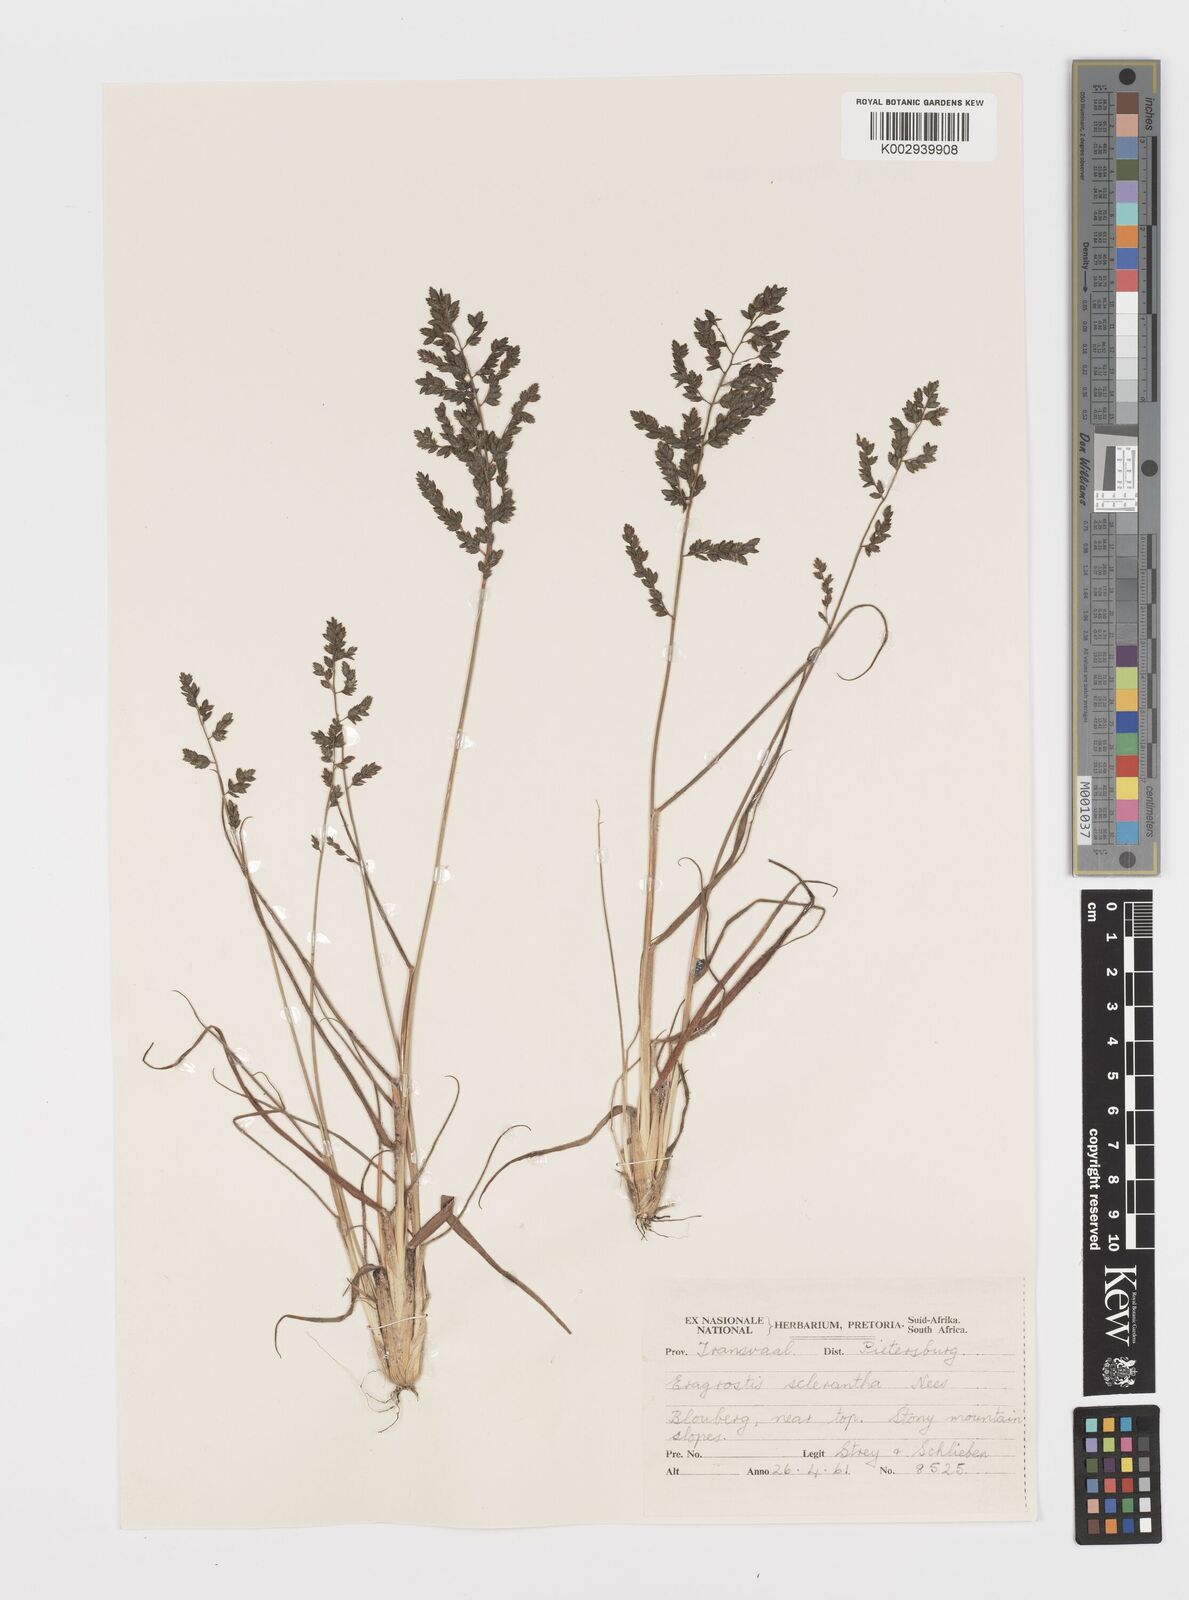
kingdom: Plantae
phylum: Tracheophyta
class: Liliopsida
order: Poales
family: Poaceae
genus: Eragrostis
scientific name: Eragrostis sclerantha
